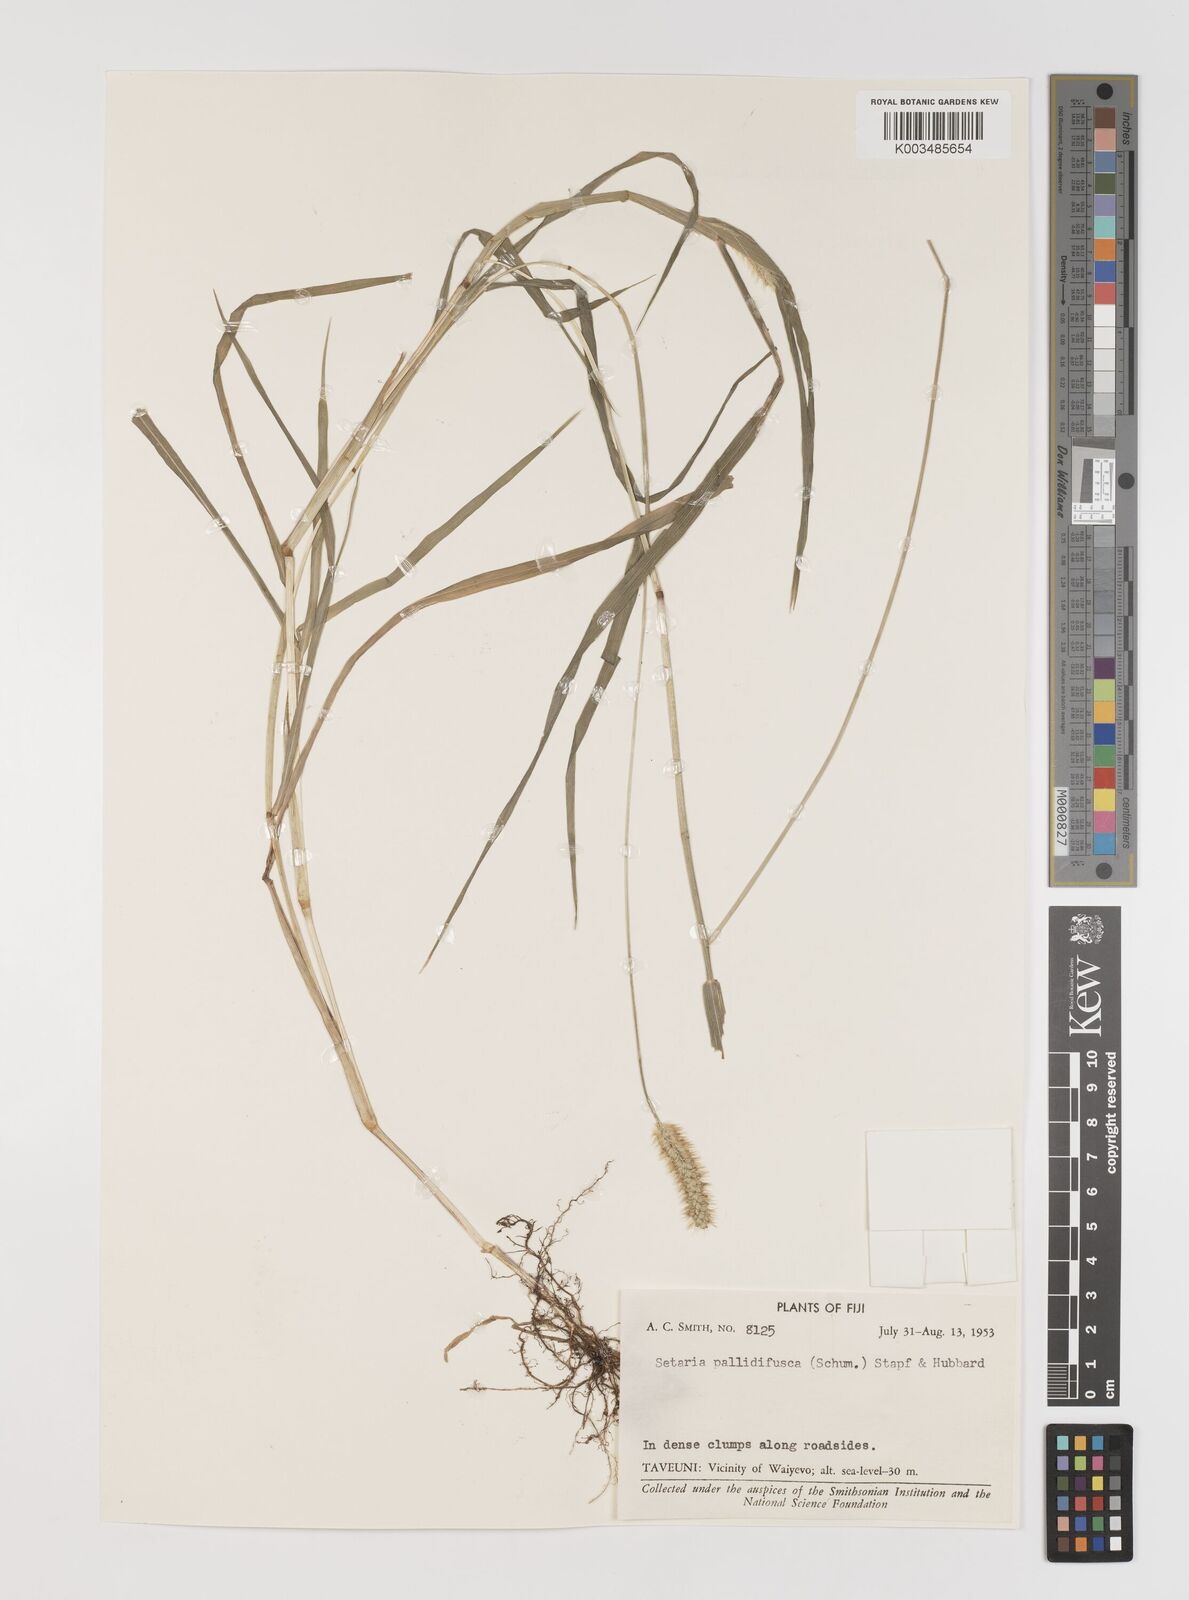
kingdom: Plantae
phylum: Tracheophyta
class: Liliopsida
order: Poales
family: Poaceae
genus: Setaria
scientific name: Setaria parviflora
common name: Knotroot bristle-grass
